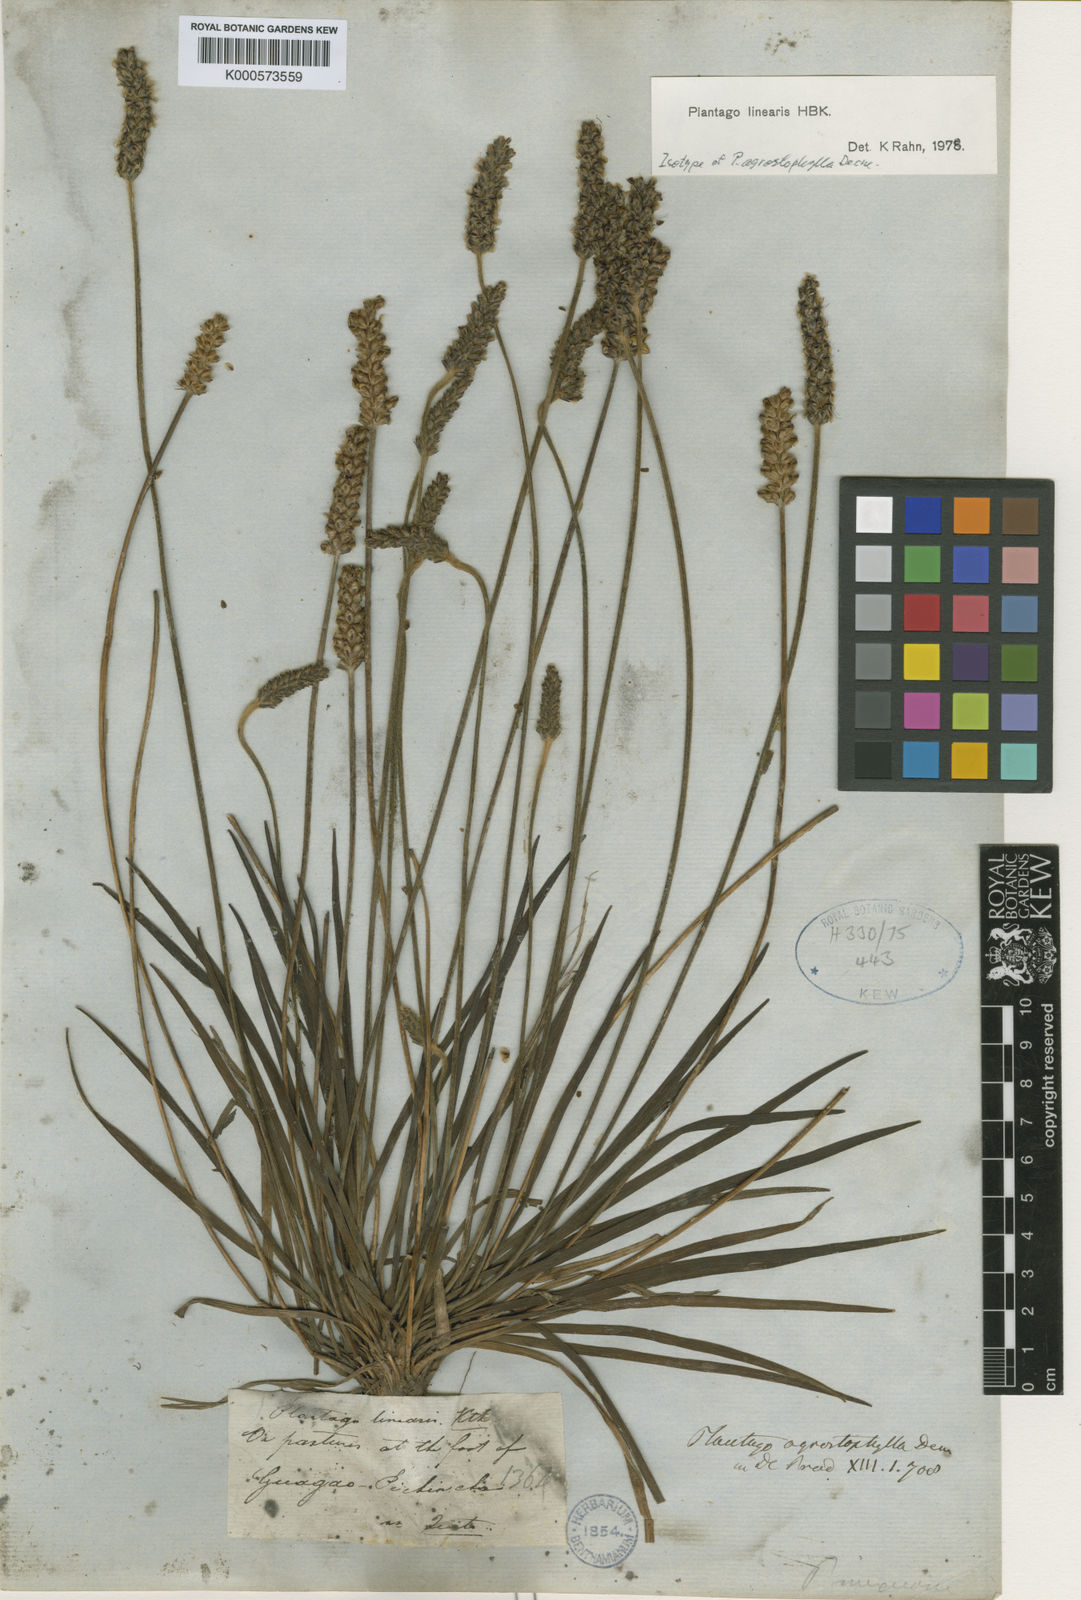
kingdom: Plantae
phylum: Tracheophyta
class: Magnoliopsida
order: Lamiales
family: Plantaginaceae
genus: Plantago
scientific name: Plantago linearis
